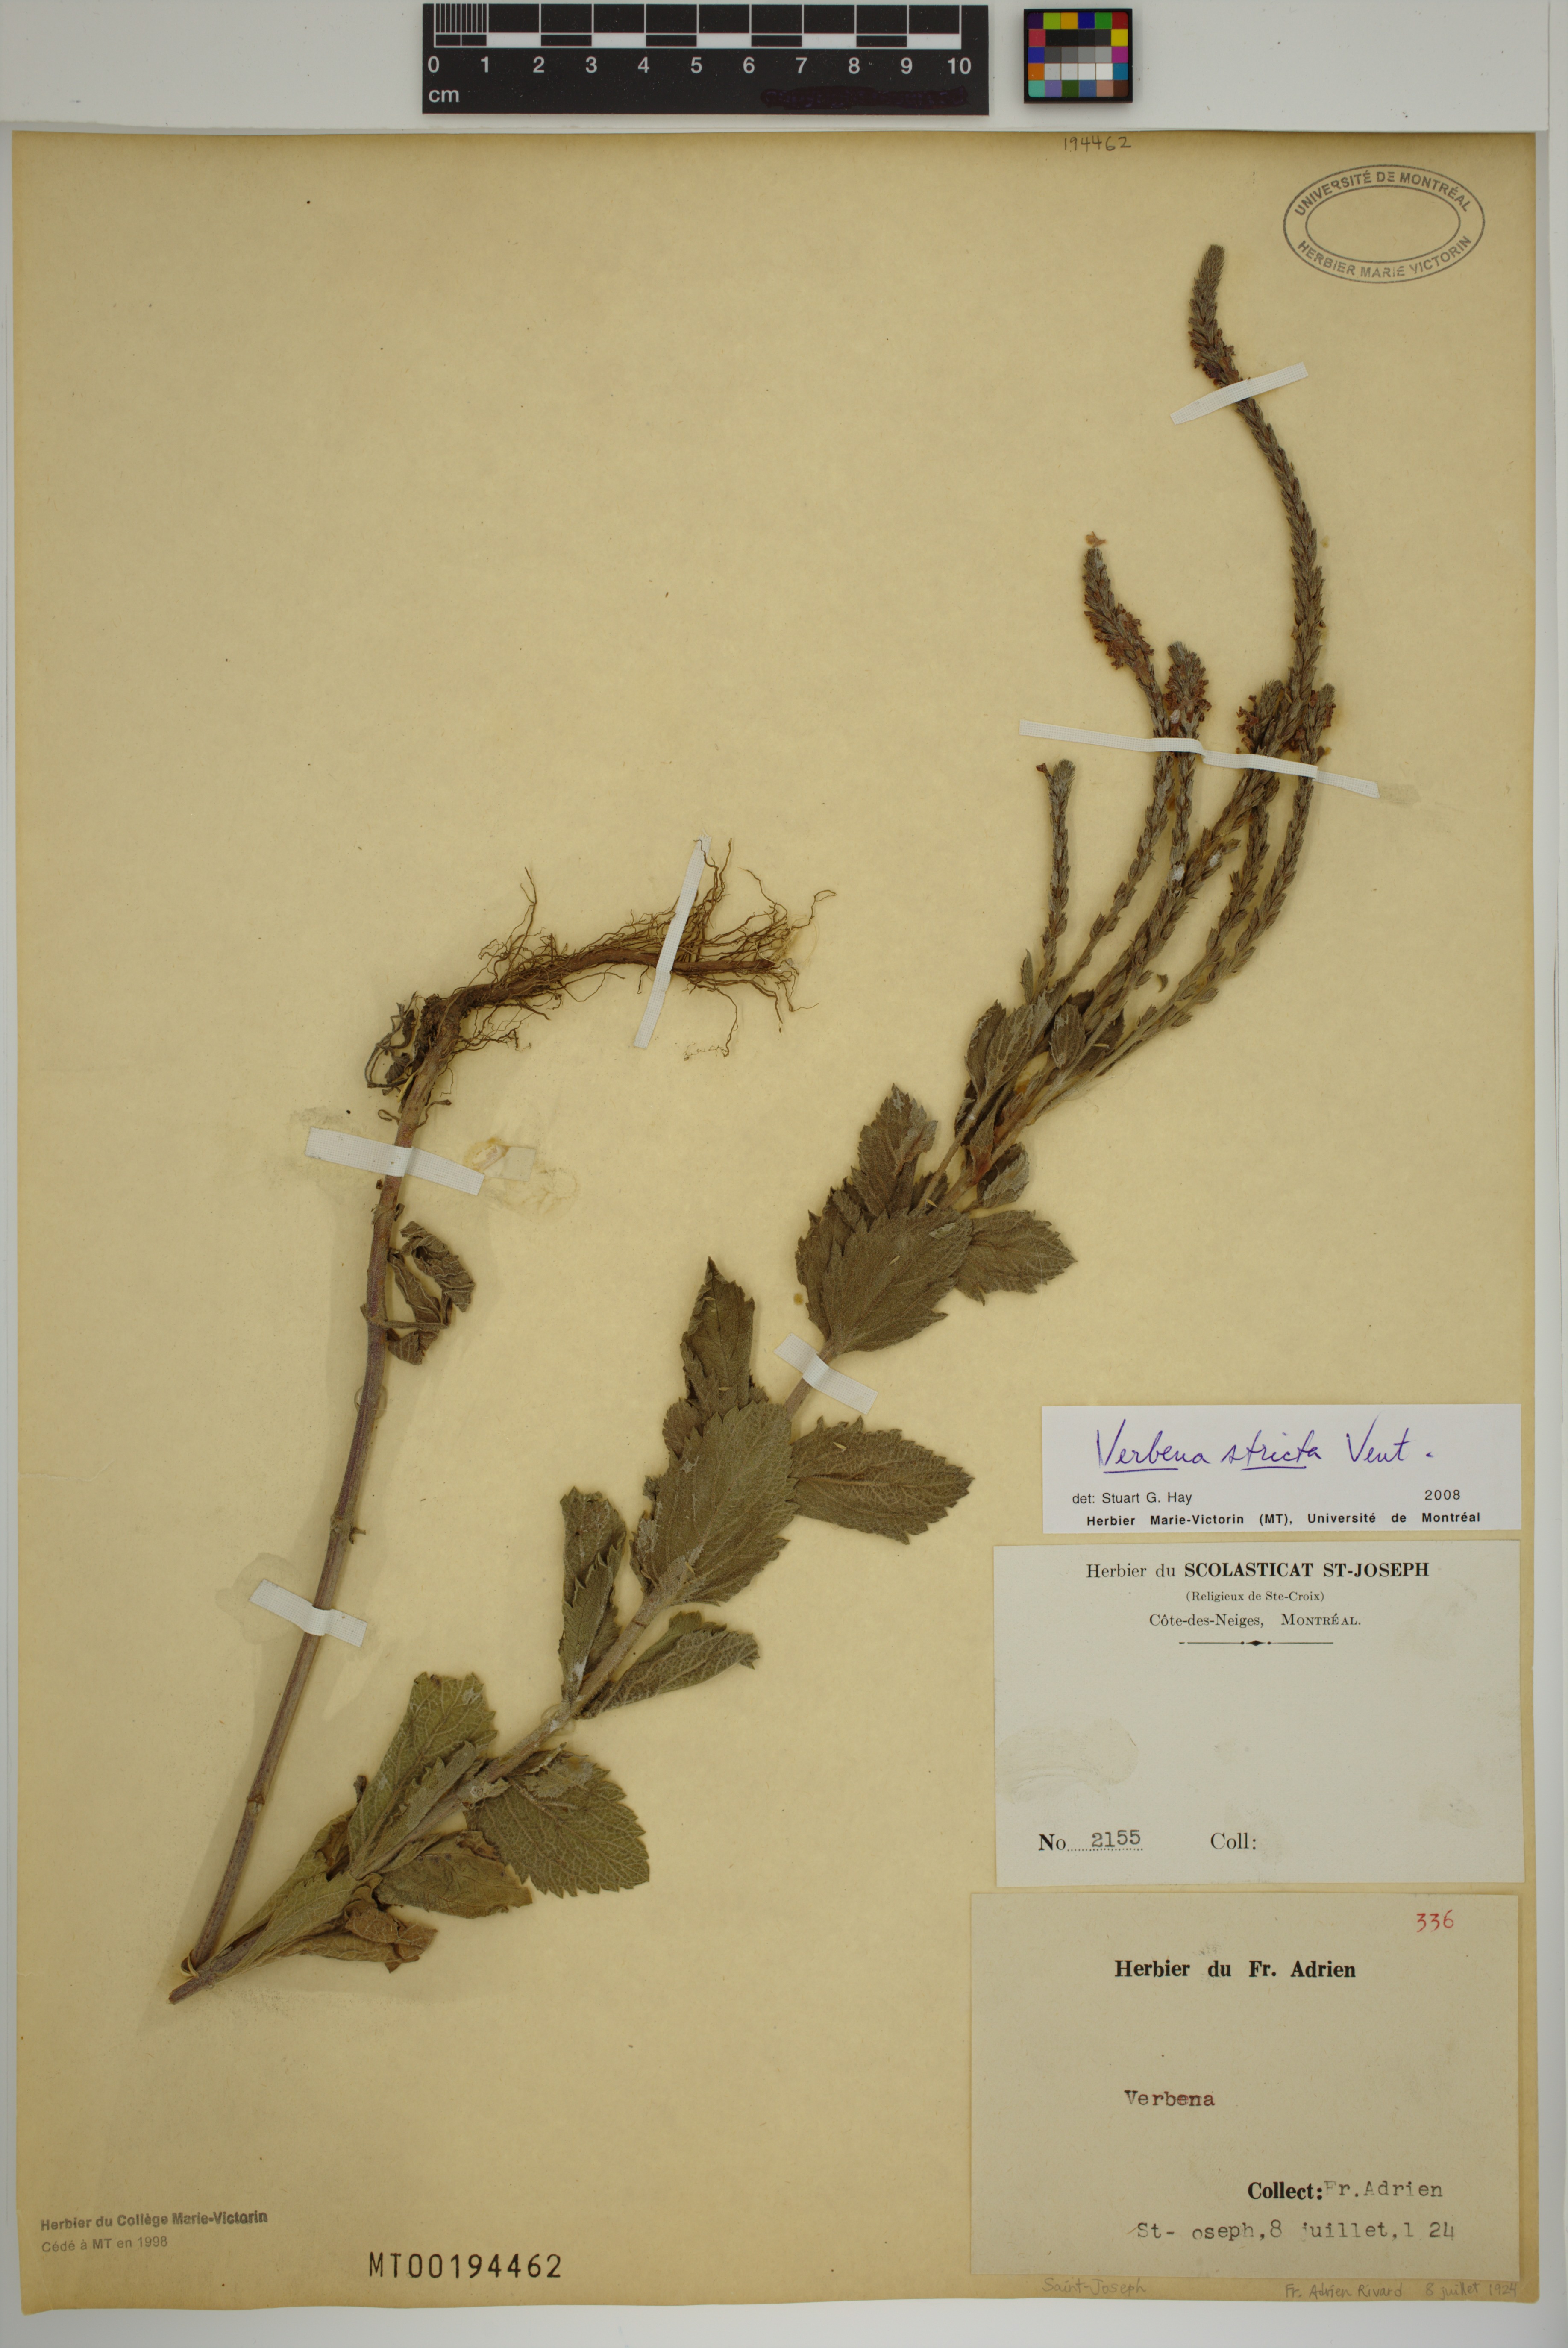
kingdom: Plantae
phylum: Tracheophyta
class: Magnoliopsida
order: Lamiales
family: Verbenaceae
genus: Verbena
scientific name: Verbena stricta
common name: Hoary vervain
